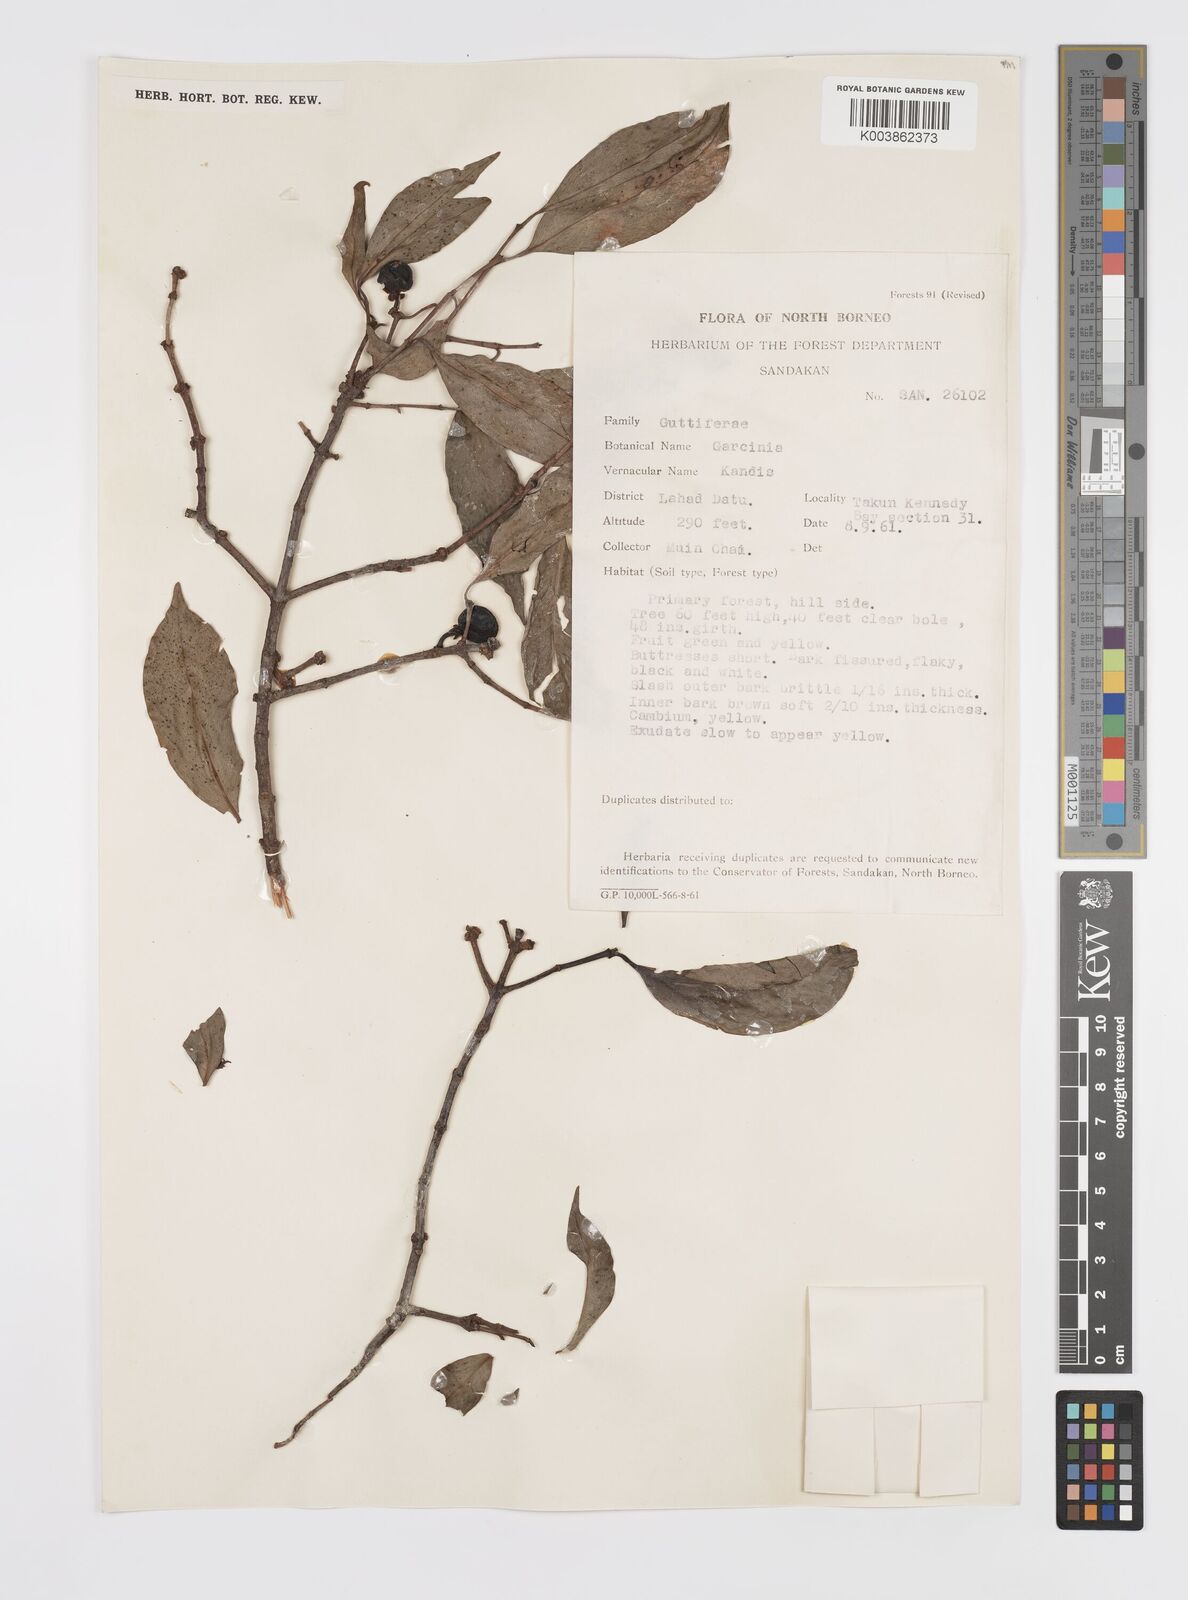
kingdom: Plantae
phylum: Tracheophyta
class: Magnoliopsida
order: Malpighiales
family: Clusiaceae
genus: Garcinia
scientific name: Garcinia
